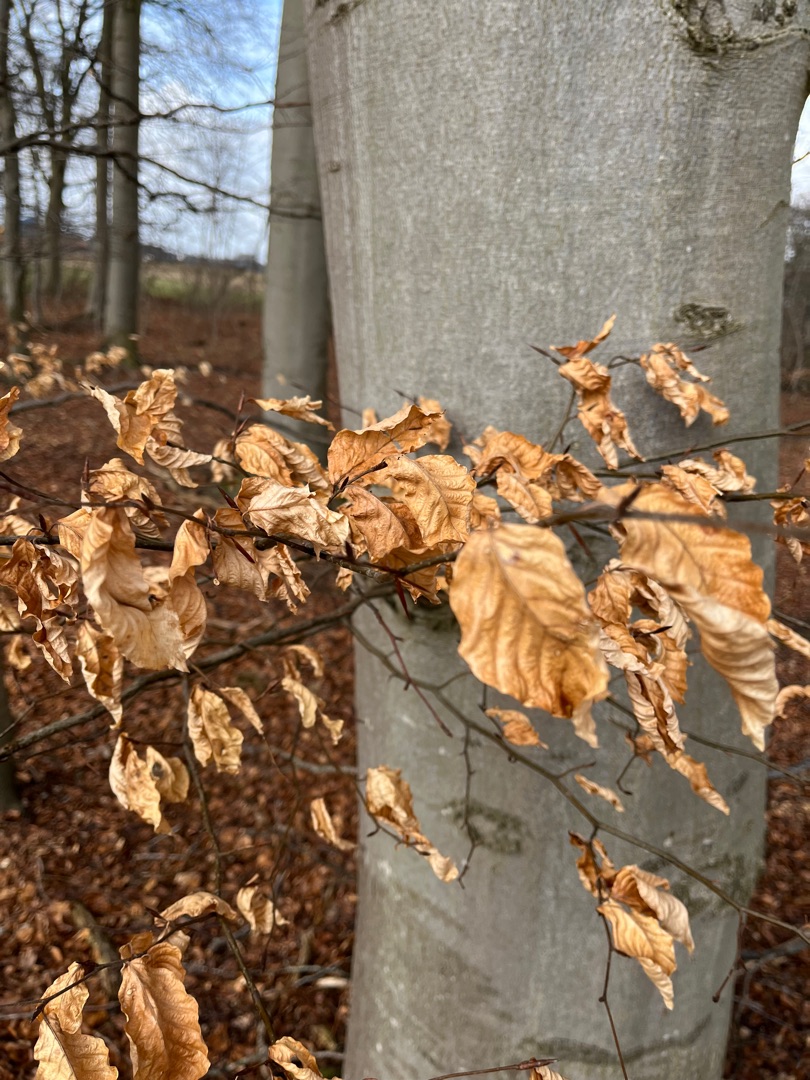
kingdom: Plantae
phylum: Tracheophyta
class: Magnoliopsida
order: Fagales
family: Fagaceae
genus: Fagus
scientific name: Fagus sylvatica
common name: Bøg
